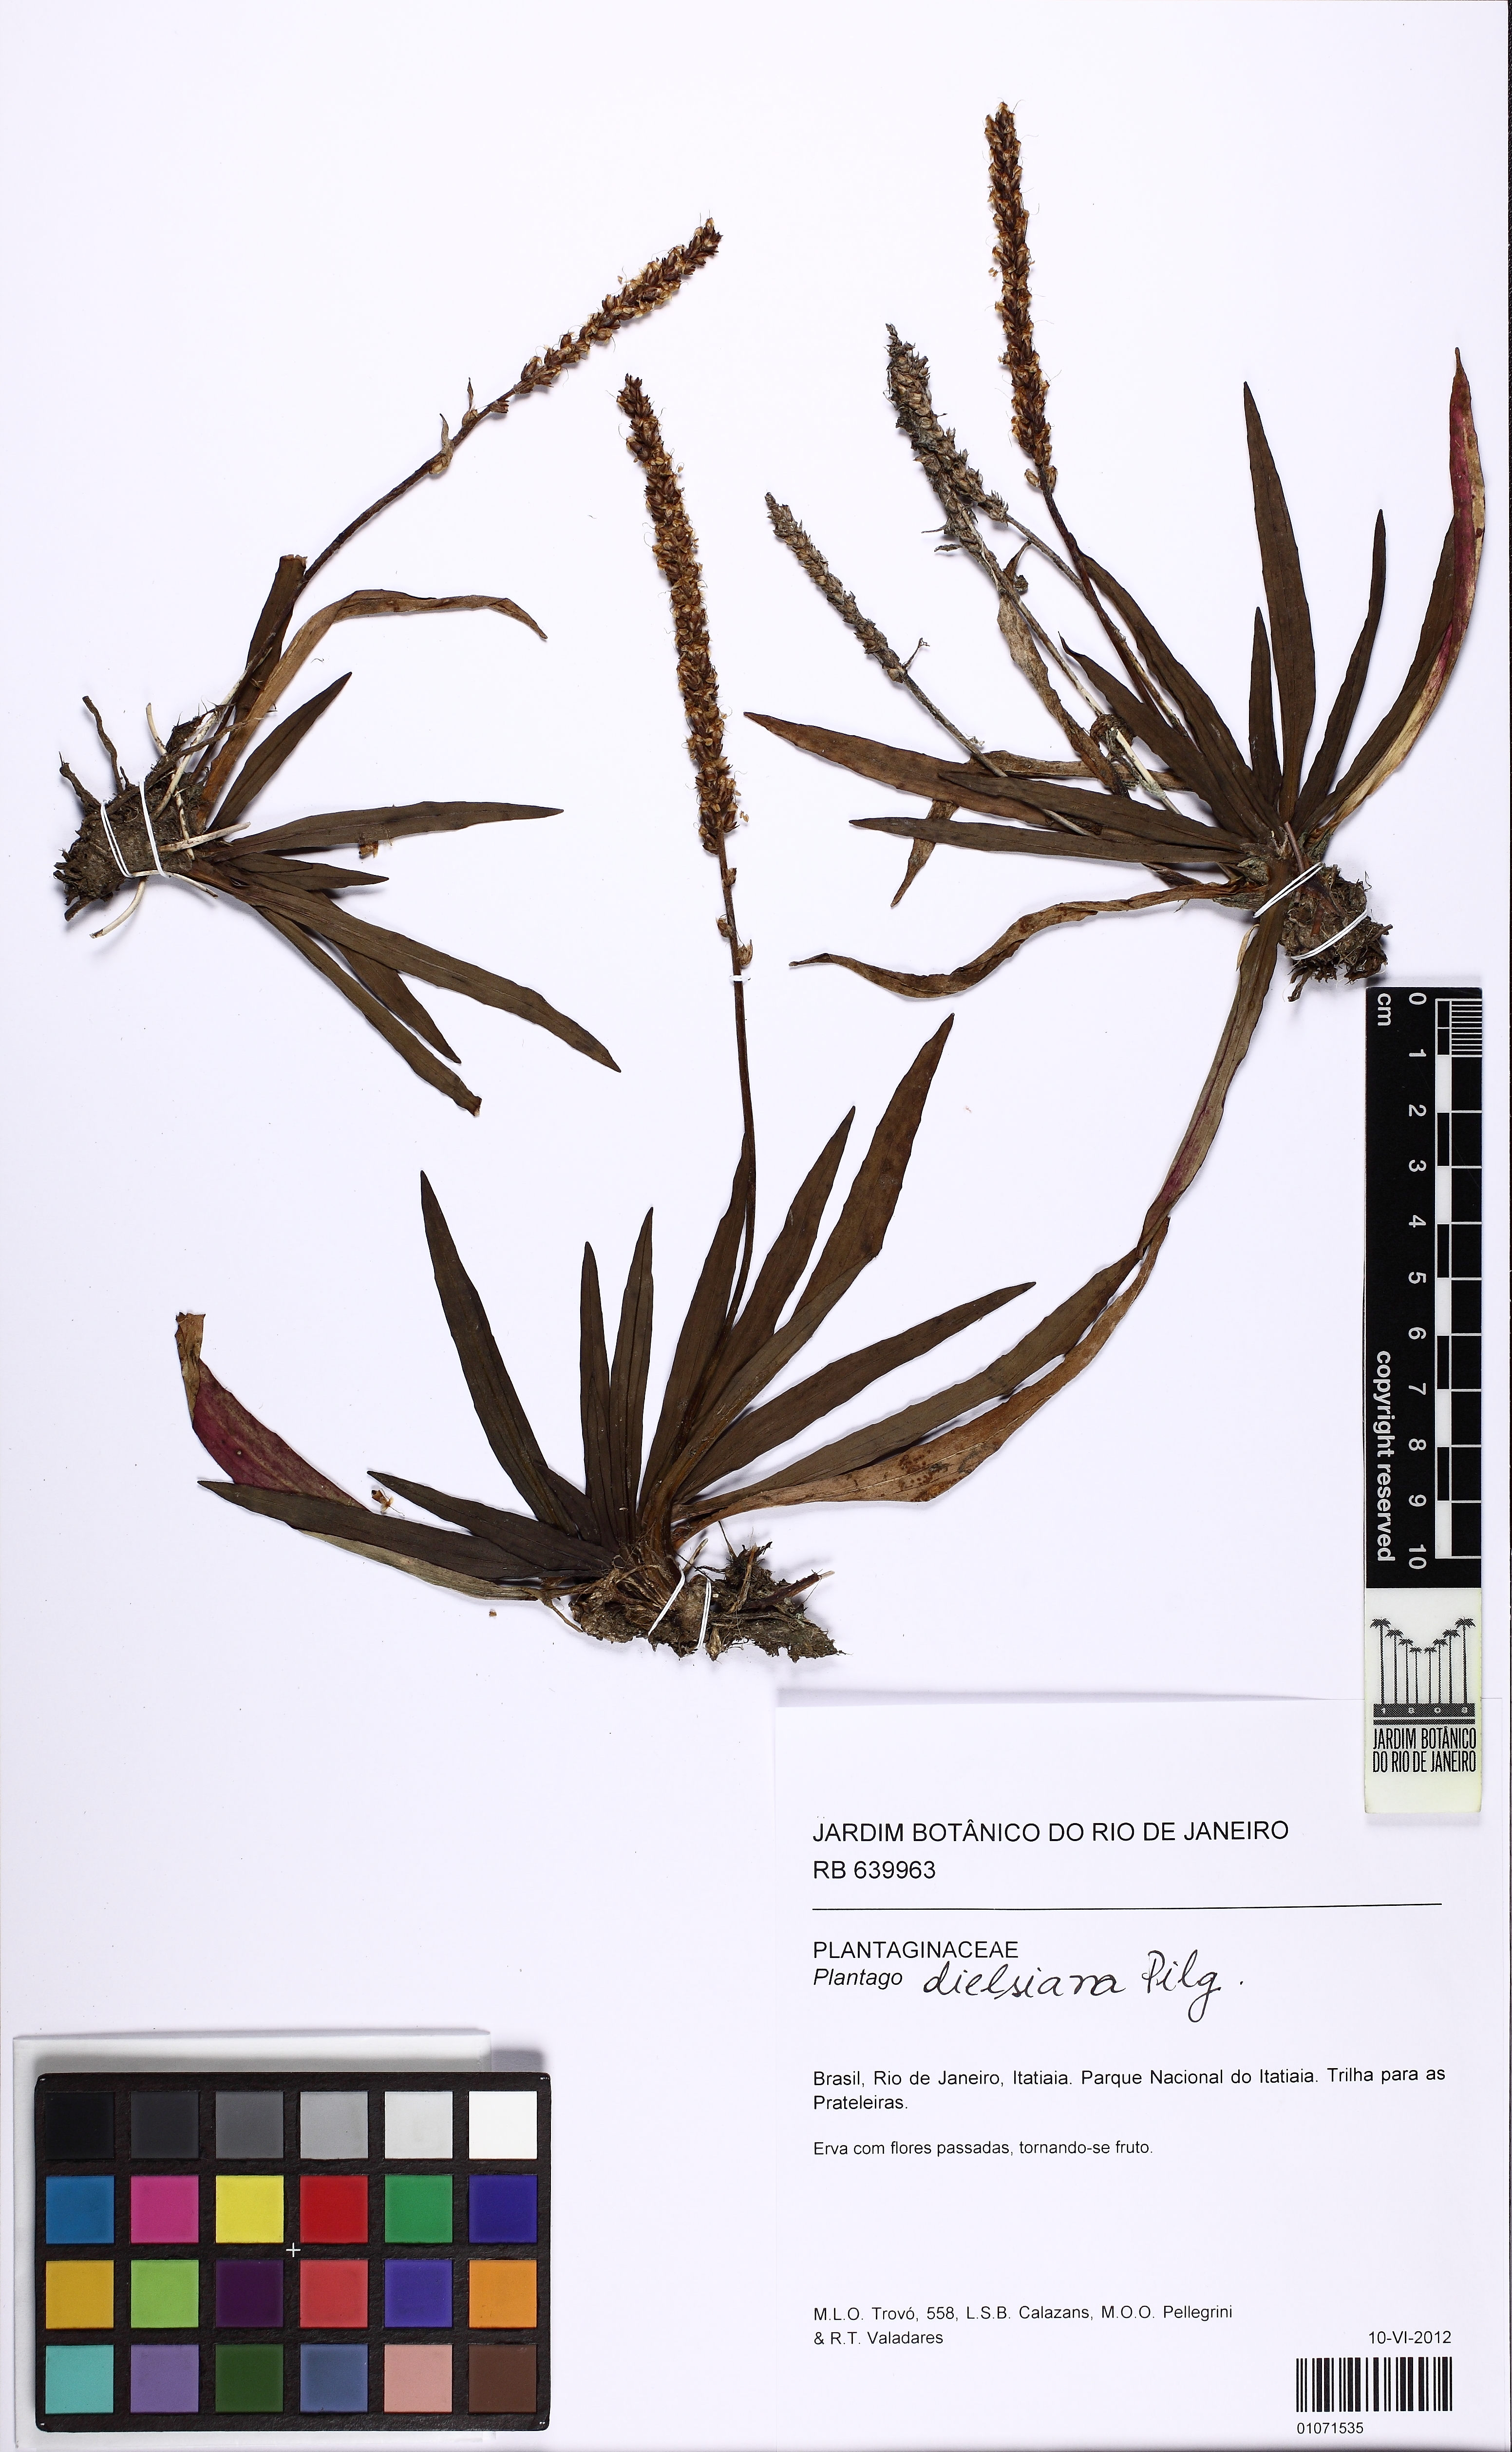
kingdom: Plantae
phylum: Tracheophyta
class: Magnoliopsida
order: Lamiales
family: Plantaginaceae
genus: Plantago
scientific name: Plantago dielsiana
